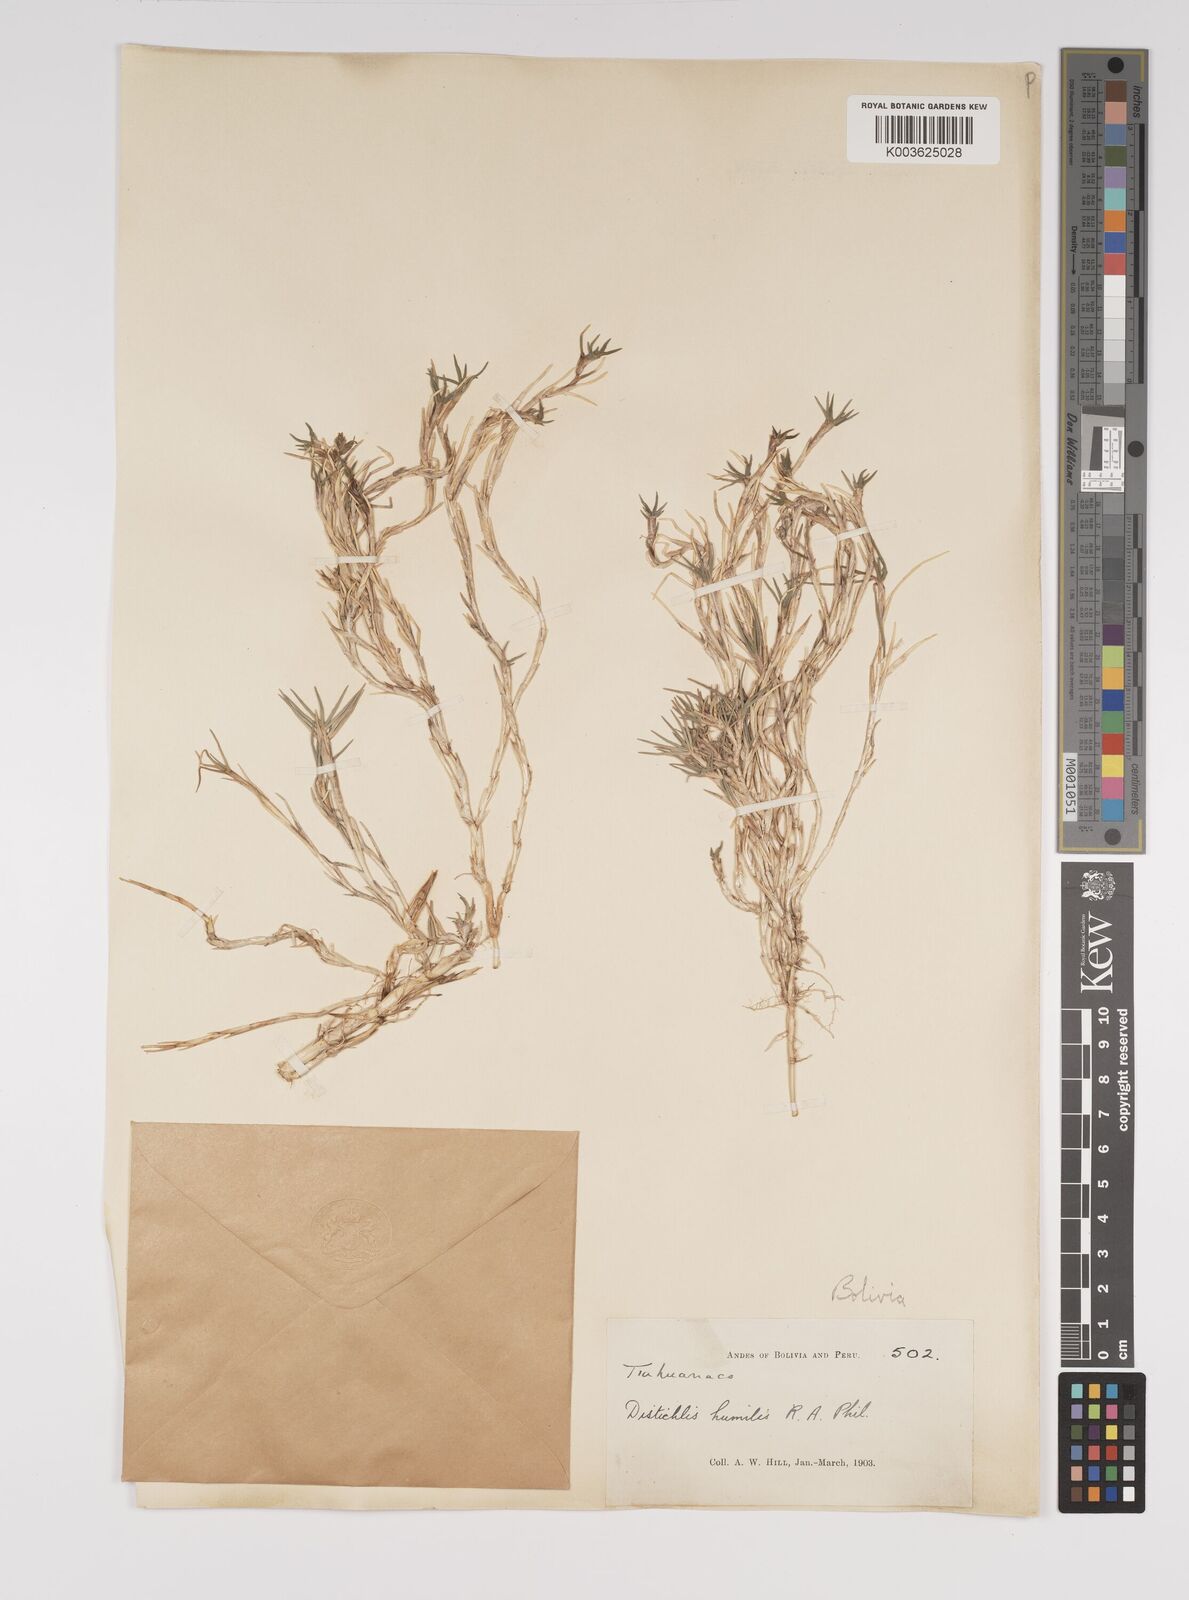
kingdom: Plantae
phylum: Tracheophyta
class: Liliopsida
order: Poales
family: Poaceae
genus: Distichlis
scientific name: Distichlis humilis
